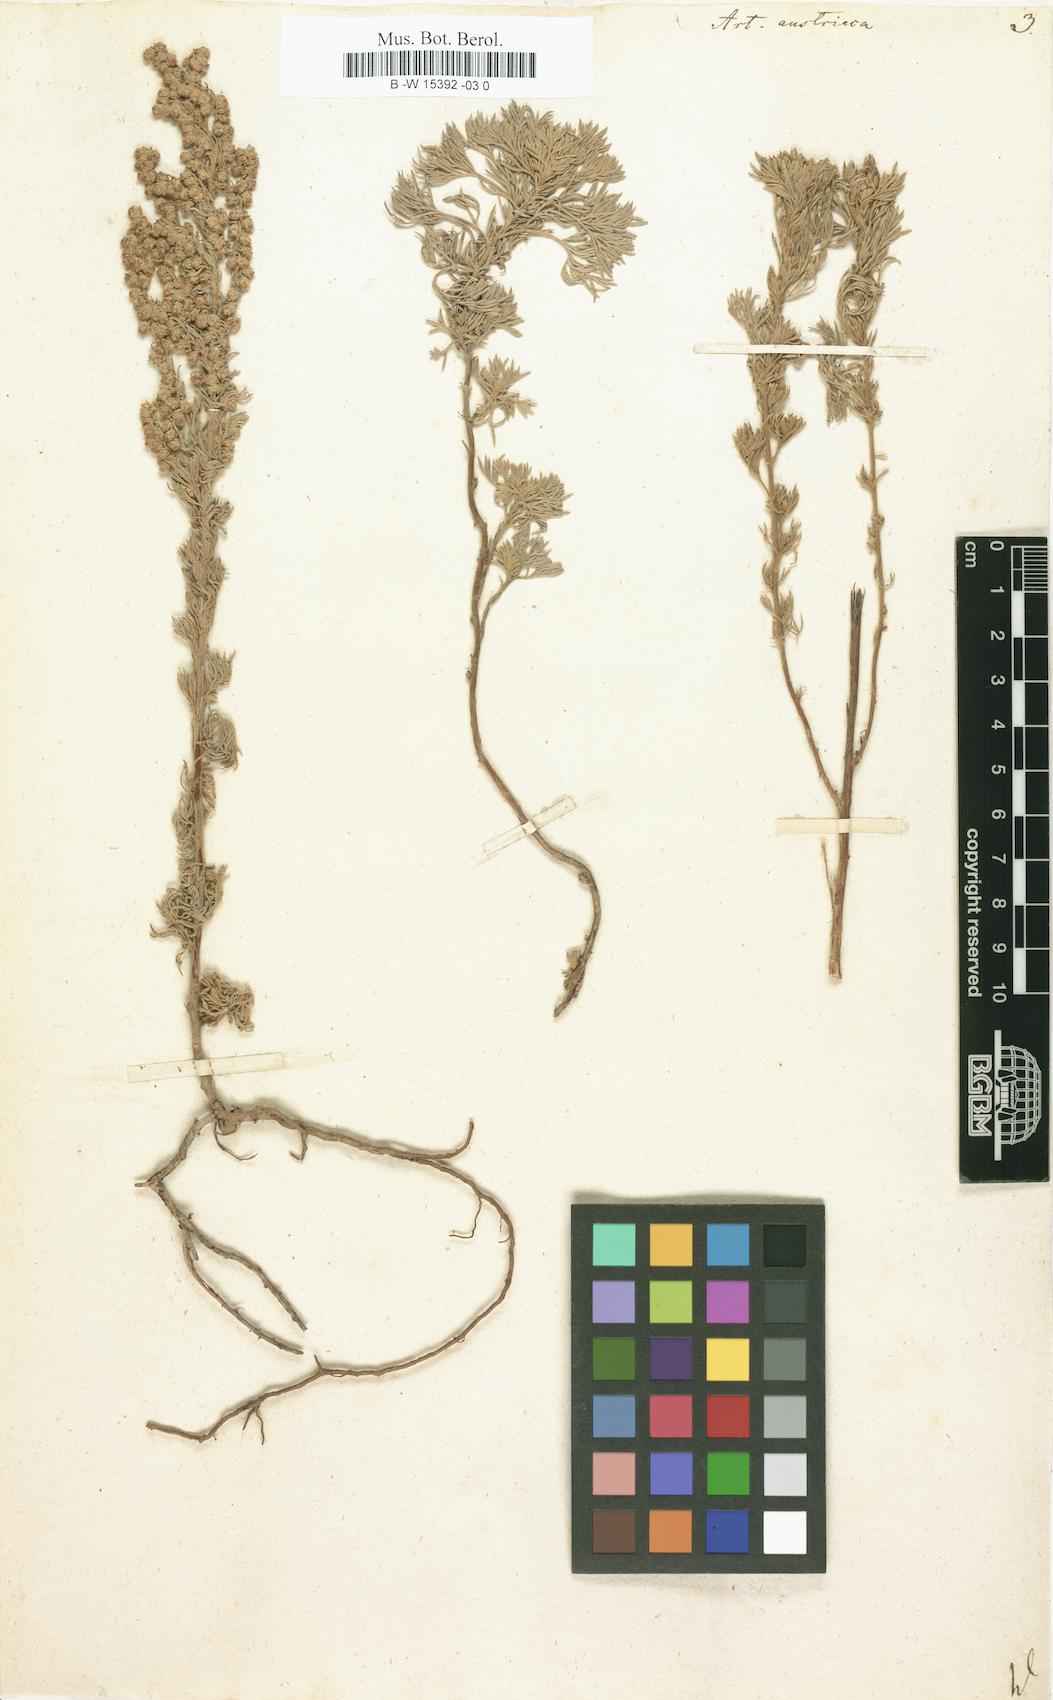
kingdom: Plantae
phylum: Tracheophyta
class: Magnoliopsida
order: Asterales
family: Asteraceae
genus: Artemisia
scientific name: Artemisia austriaca
